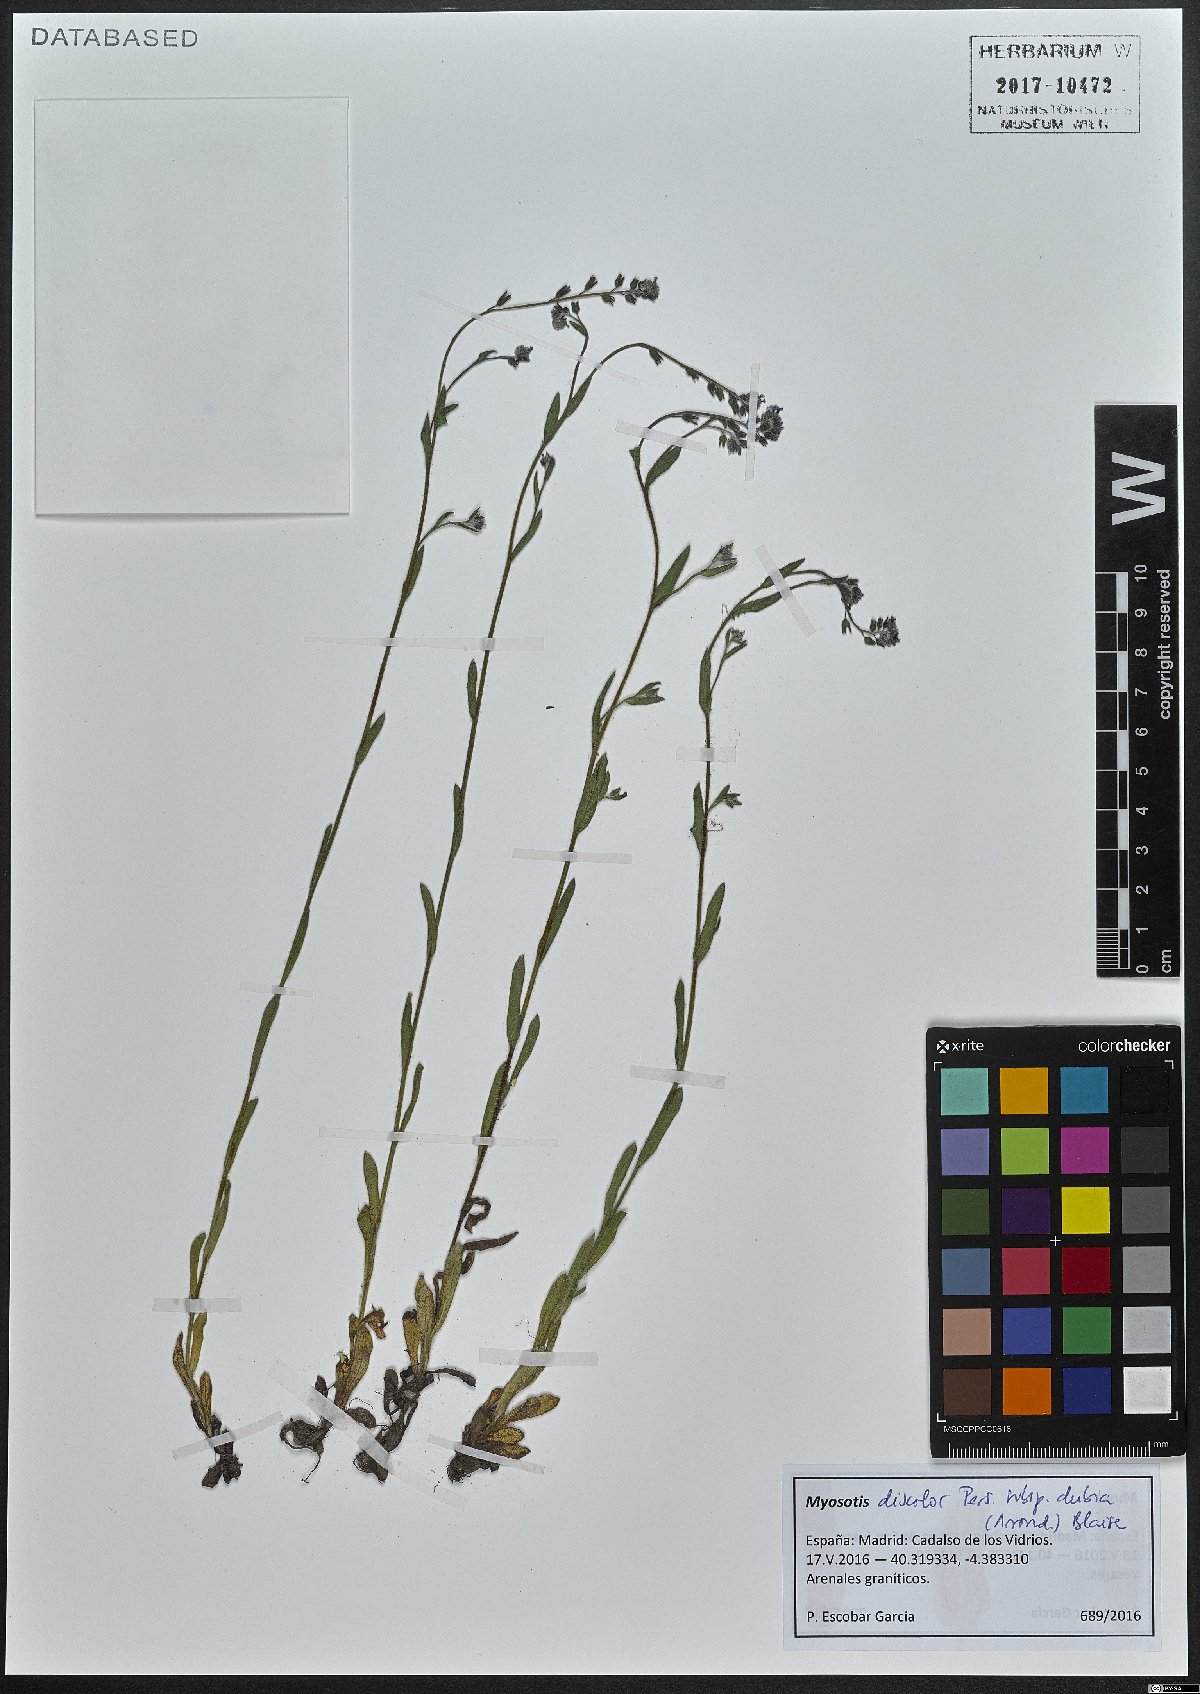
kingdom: Plantae
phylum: Tracheophyta
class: Magnoliopsida
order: Boraginales
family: Boraginaceae
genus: Myosotis
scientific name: Myosotis dubia
